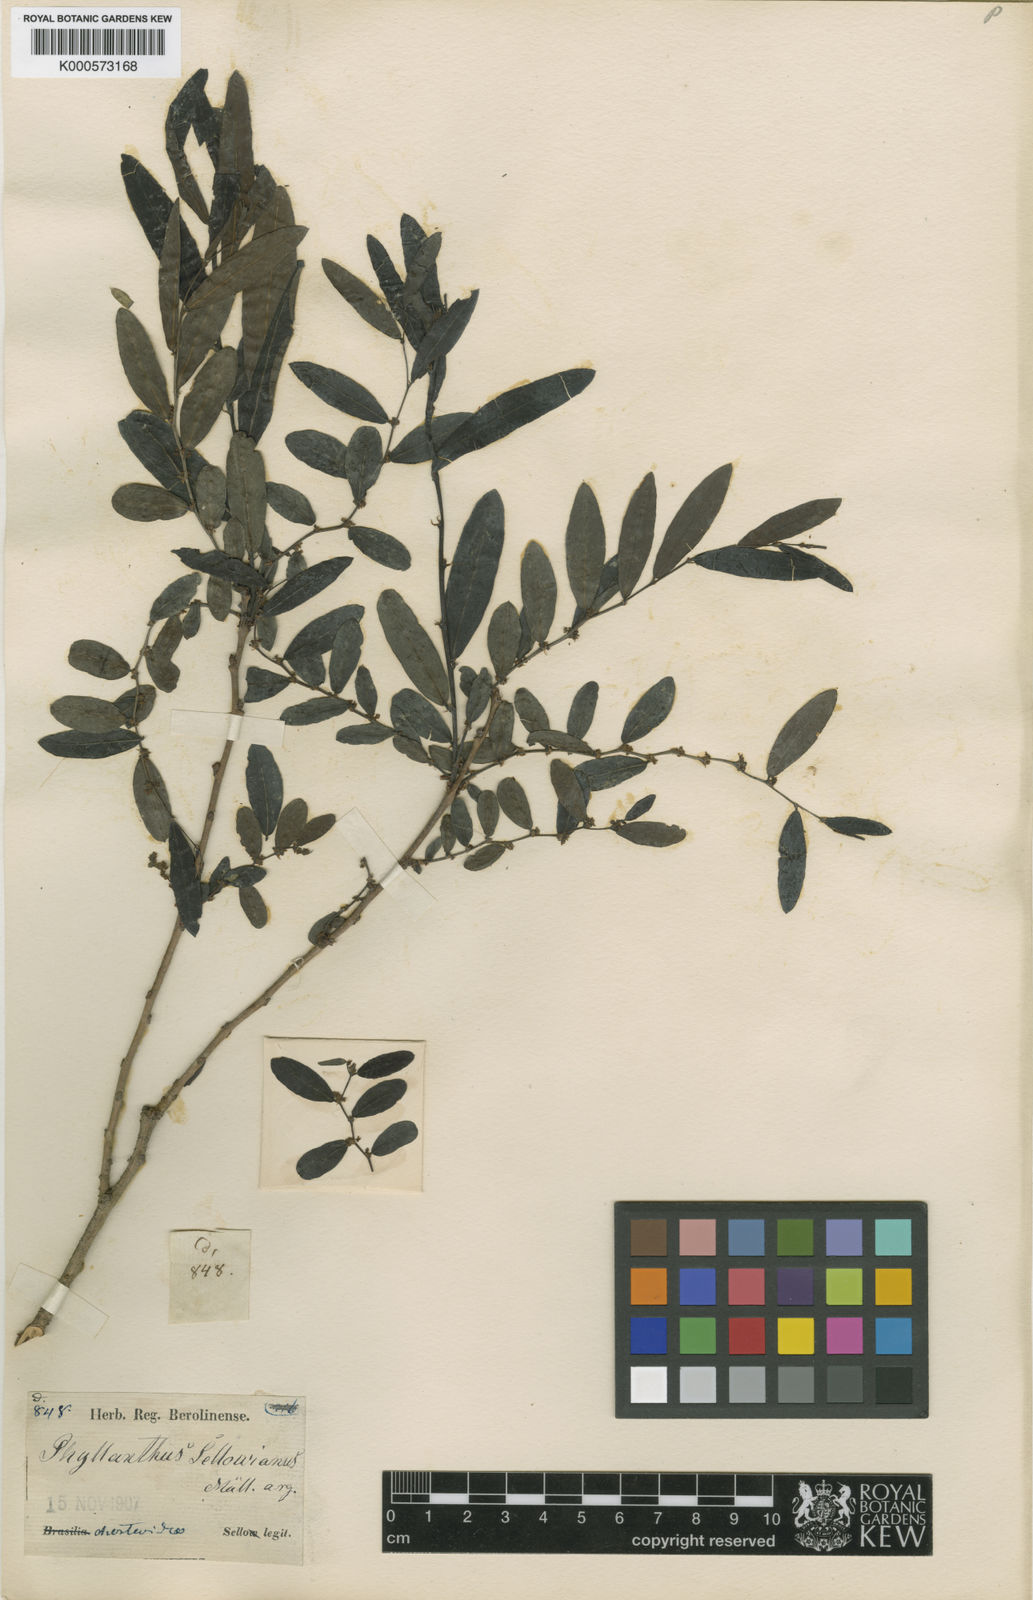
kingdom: Plantae
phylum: Tracheophyta
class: Magnoliopsida
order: Malpighiales
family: Phyllanthaceae
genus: Phyllanthus
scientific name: Phyllanthus
